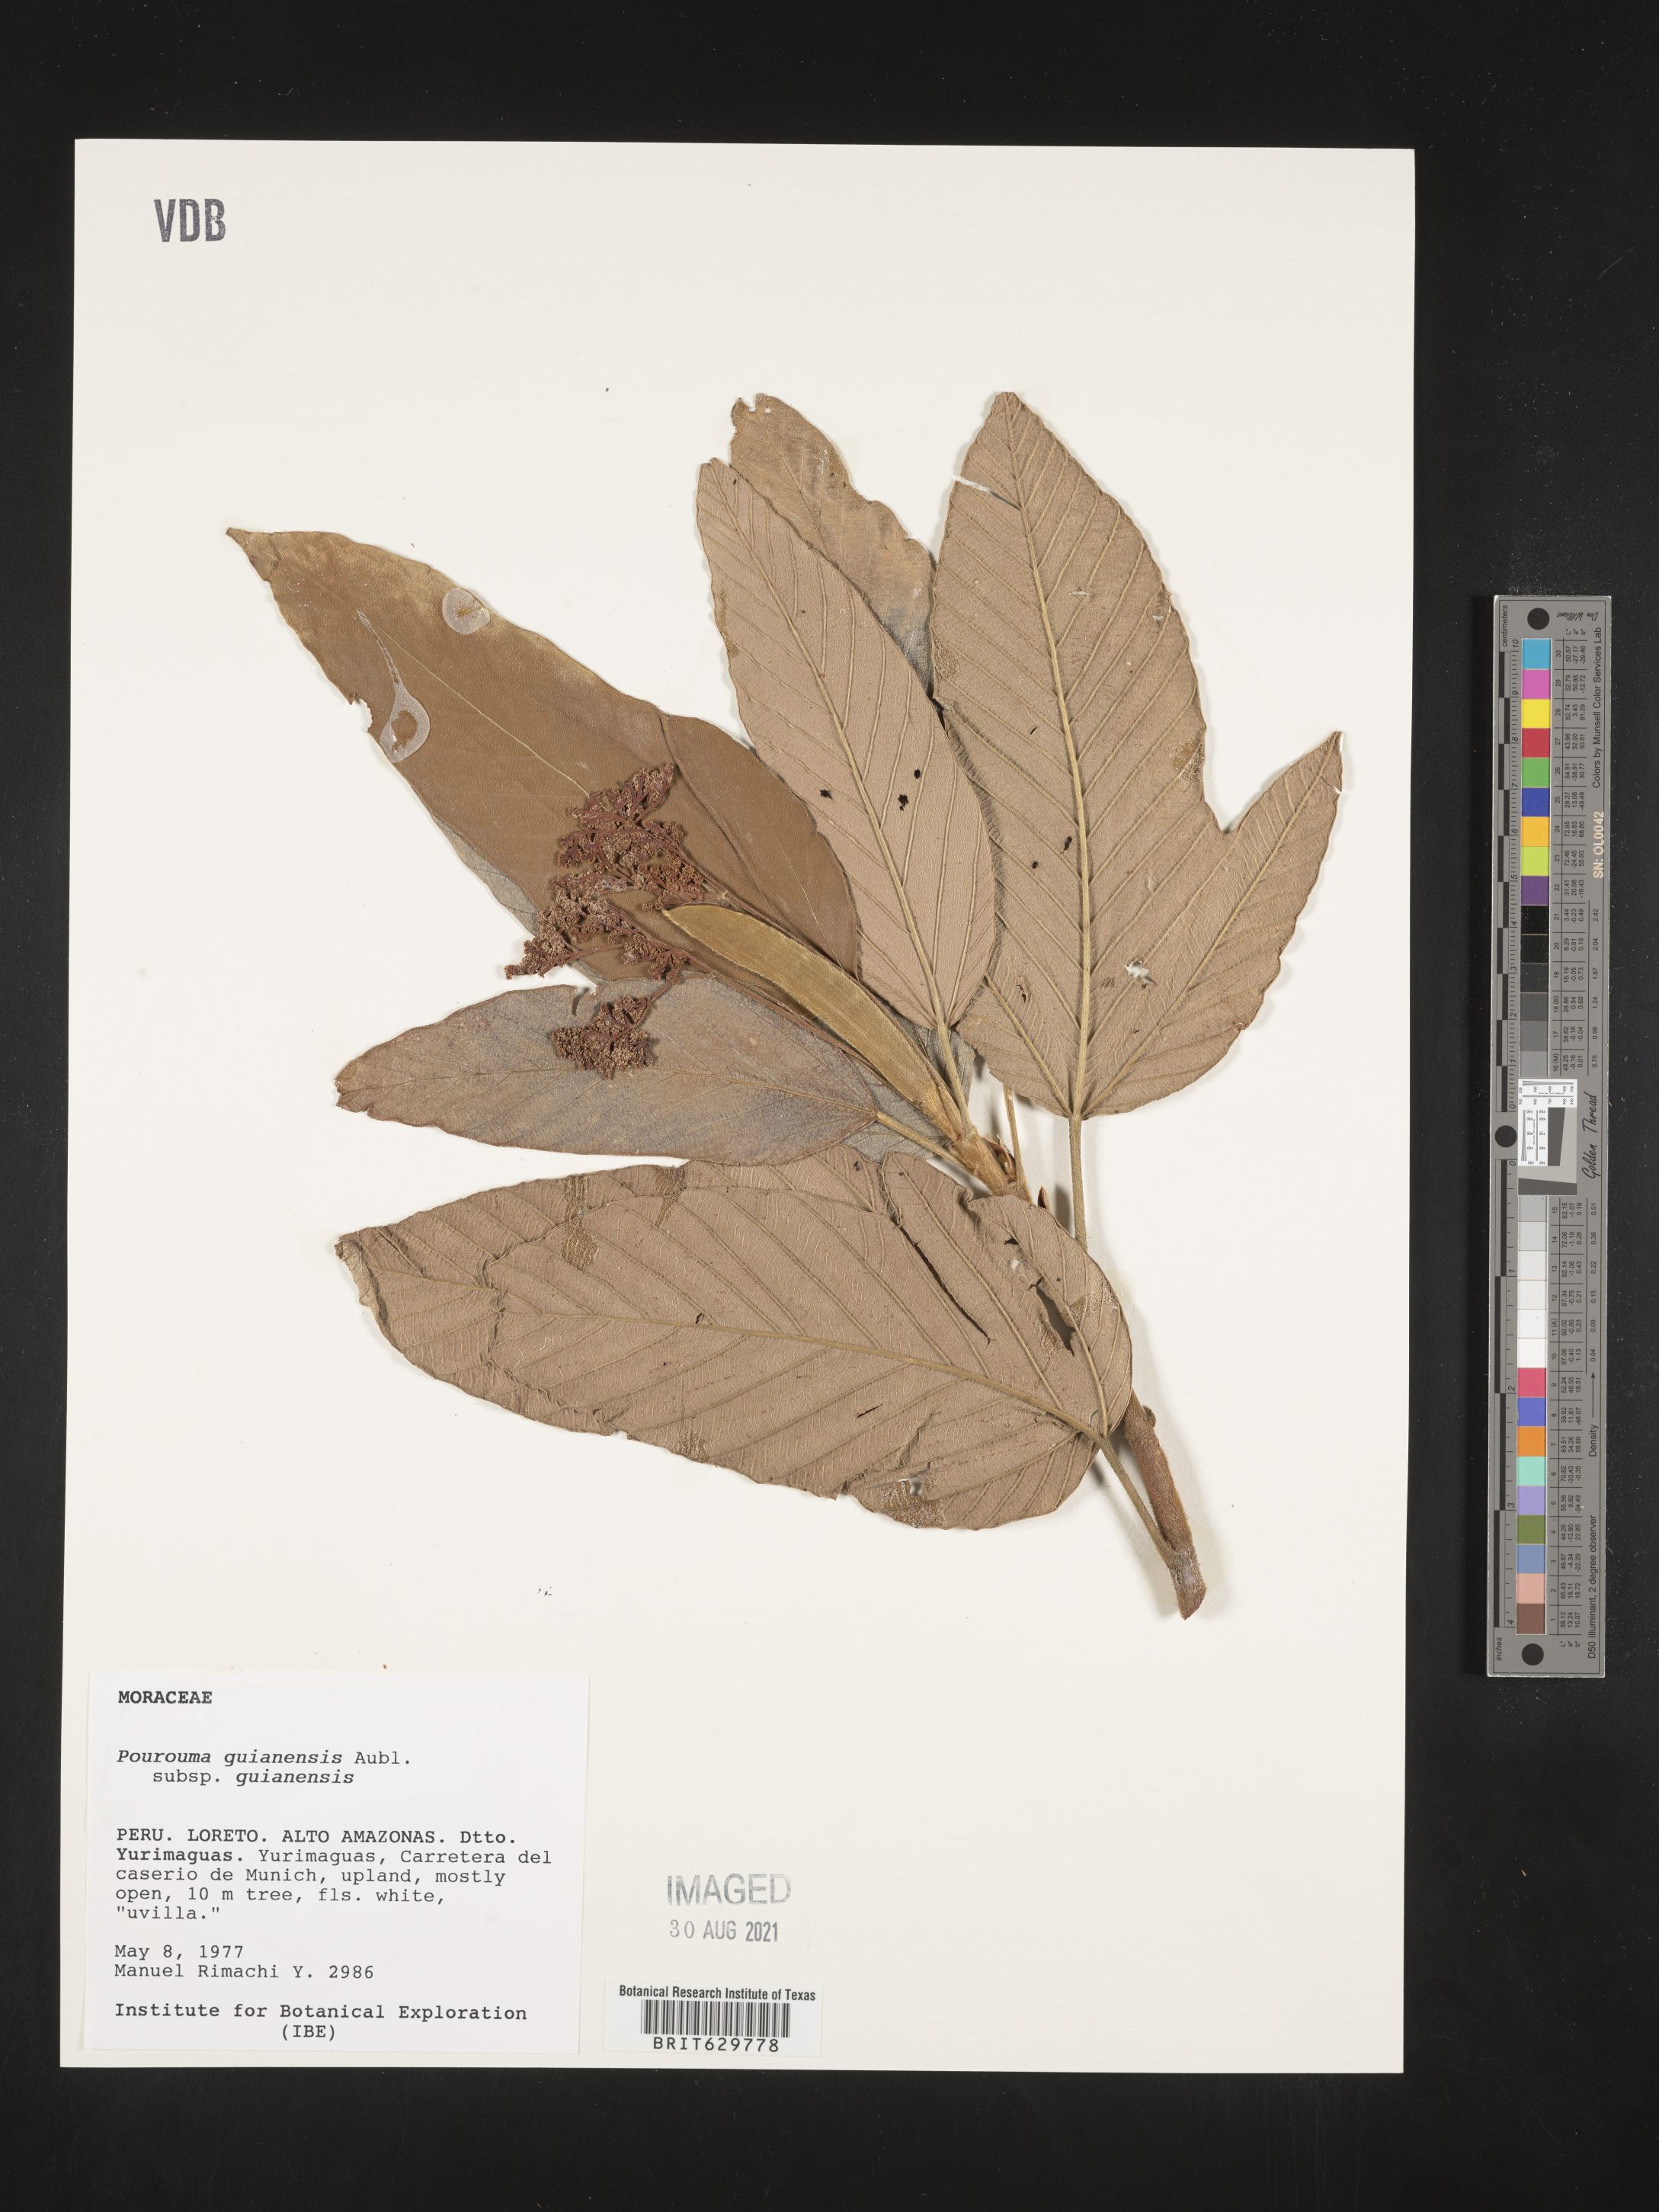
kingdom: Plantae
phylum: Tracheophyta
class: Magnoliopsida
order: Rosales
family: Urticaceae
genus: Pourouma
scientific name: Pourouma
